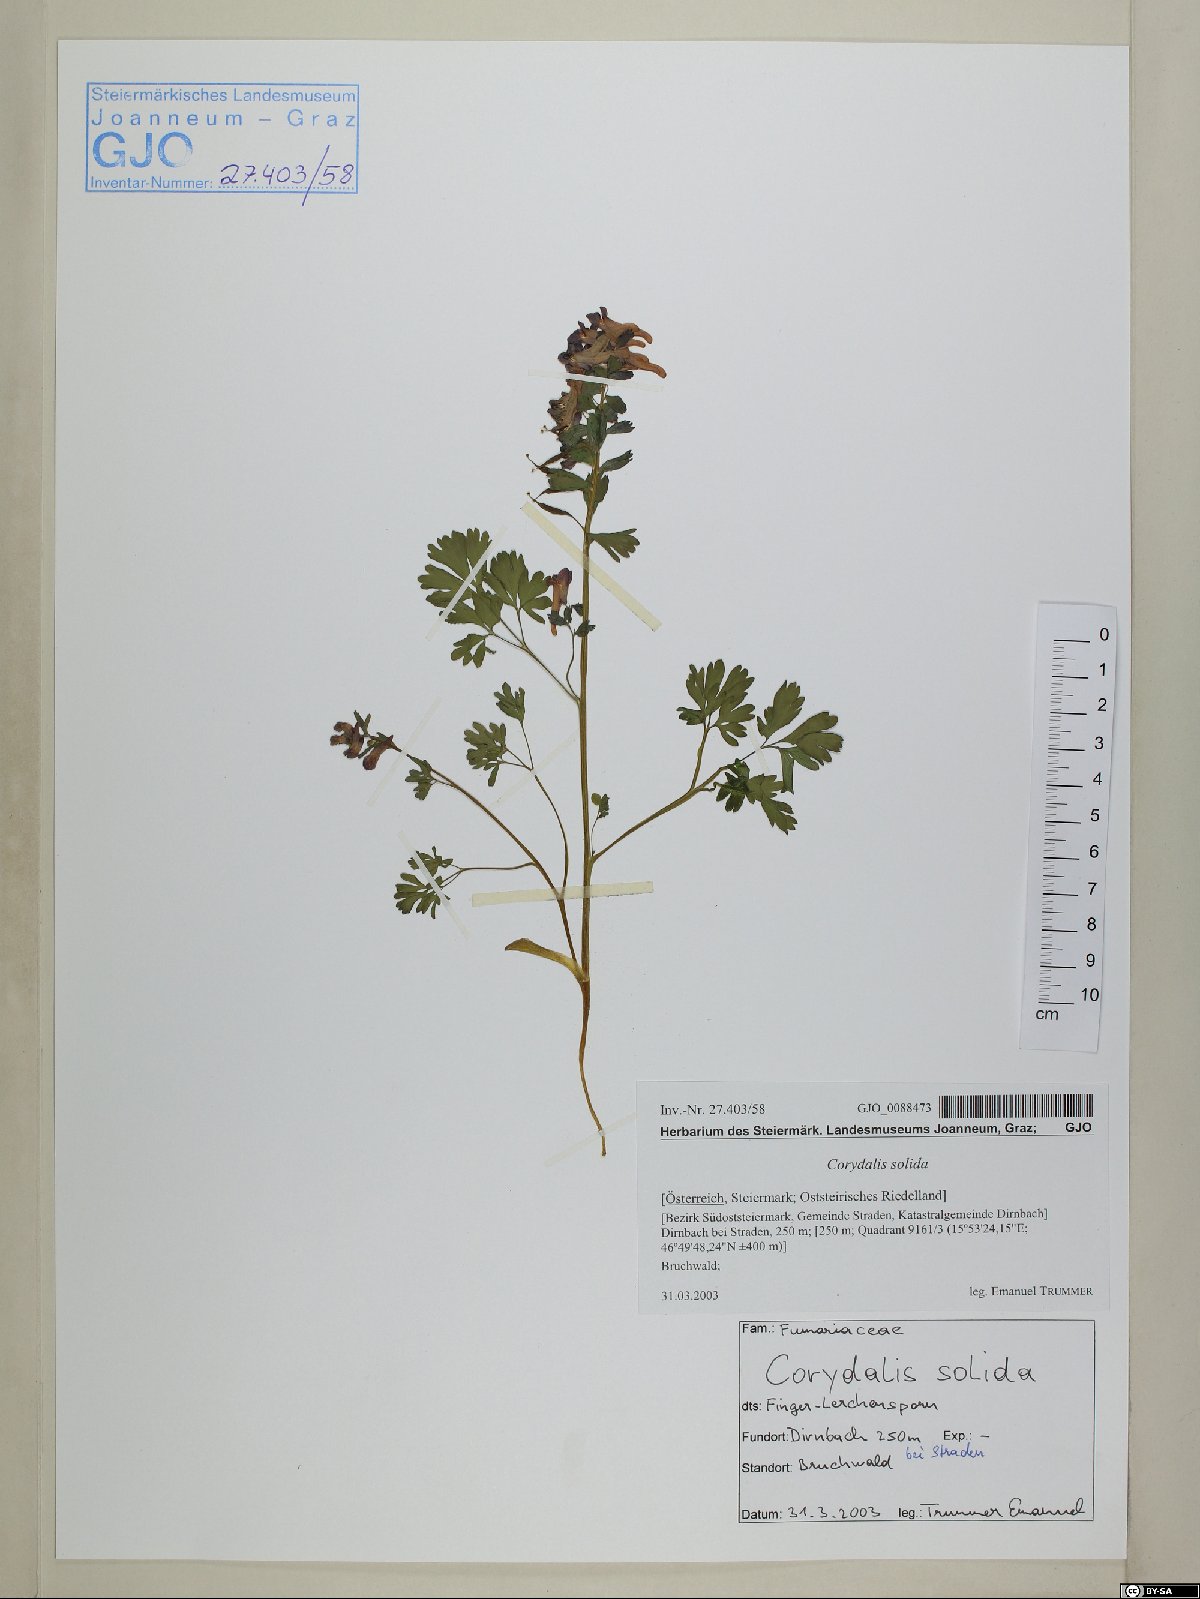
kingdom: Plantae
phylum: Tracheophyta
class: Magnoliopsida
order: Ranunculales
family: Papaveraceae
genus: Corydalis
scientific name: Corydalis solida
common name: Bird-in-a-bush
